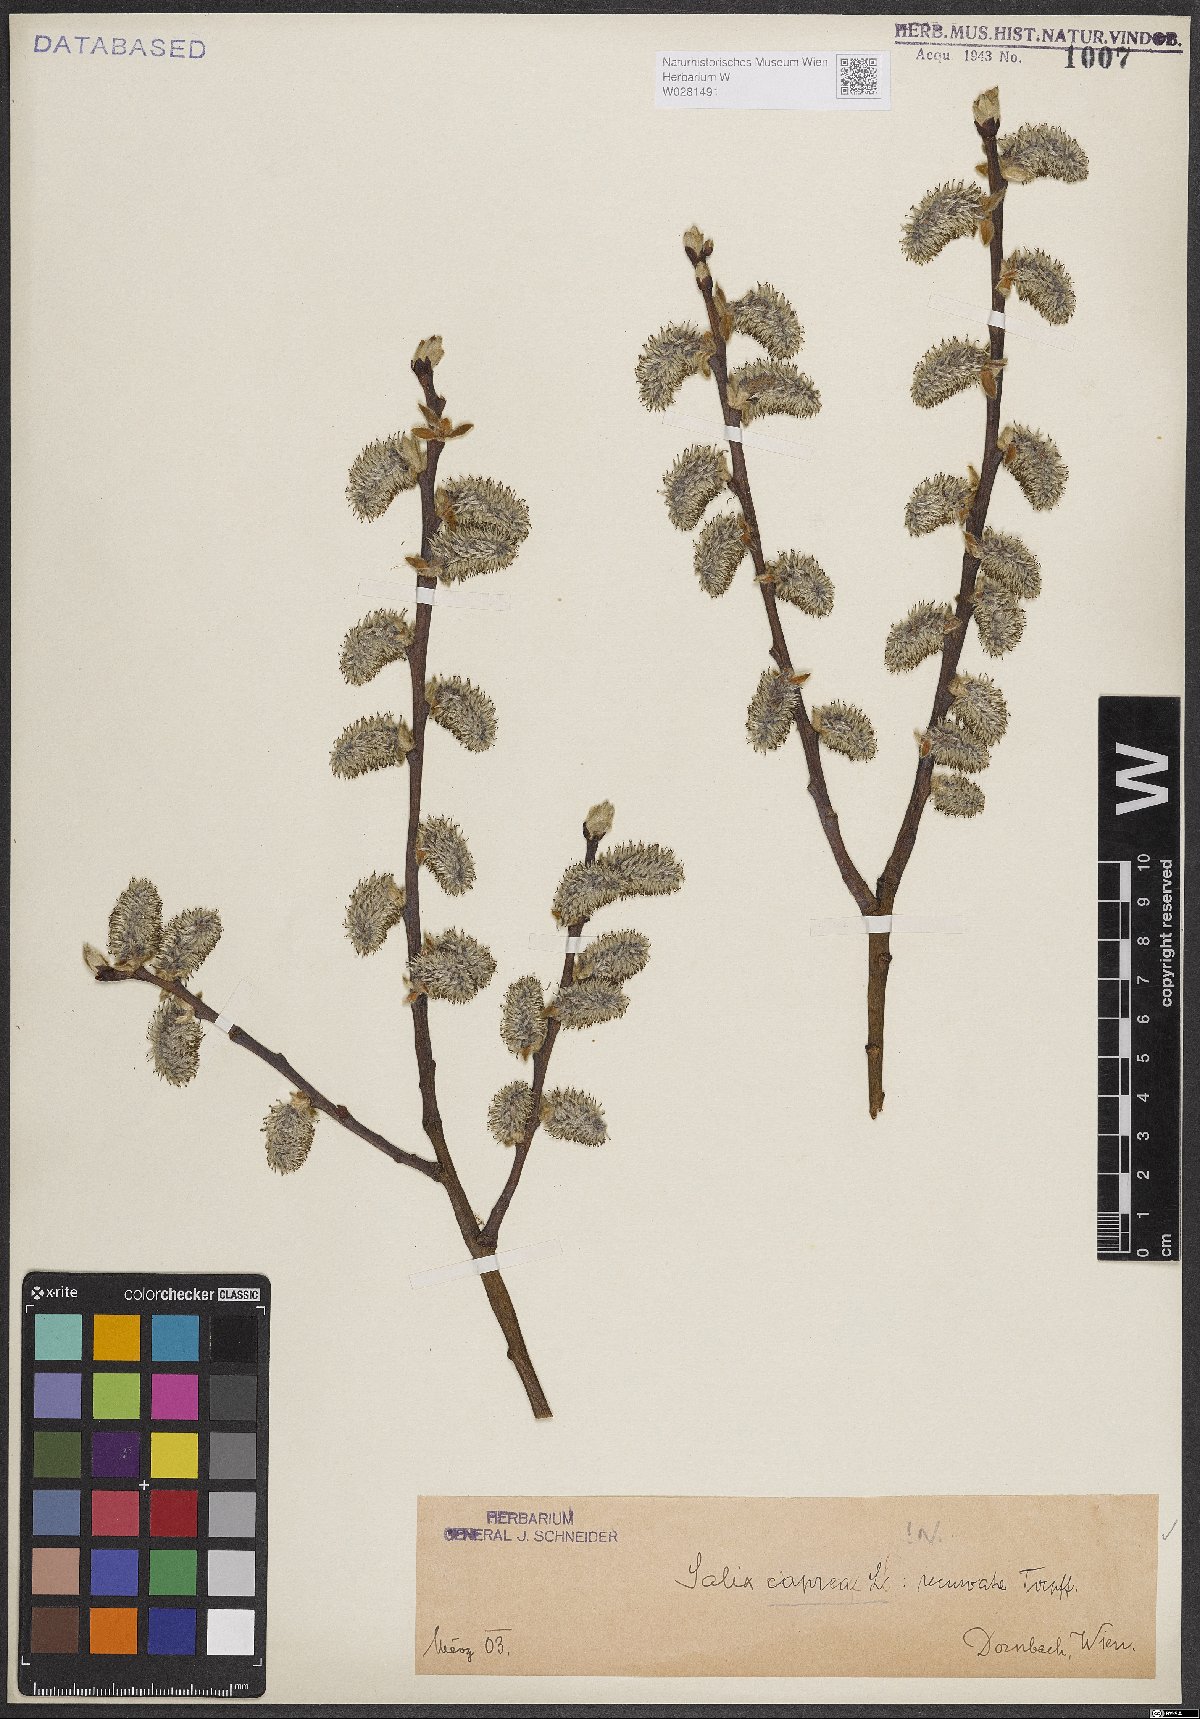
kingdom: Plantae
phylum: Tracheophyta
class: Magnoliopsida
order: Malpighiales
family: Salicaceae
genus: Salix
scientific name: Salix caprea
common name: Goat willow
